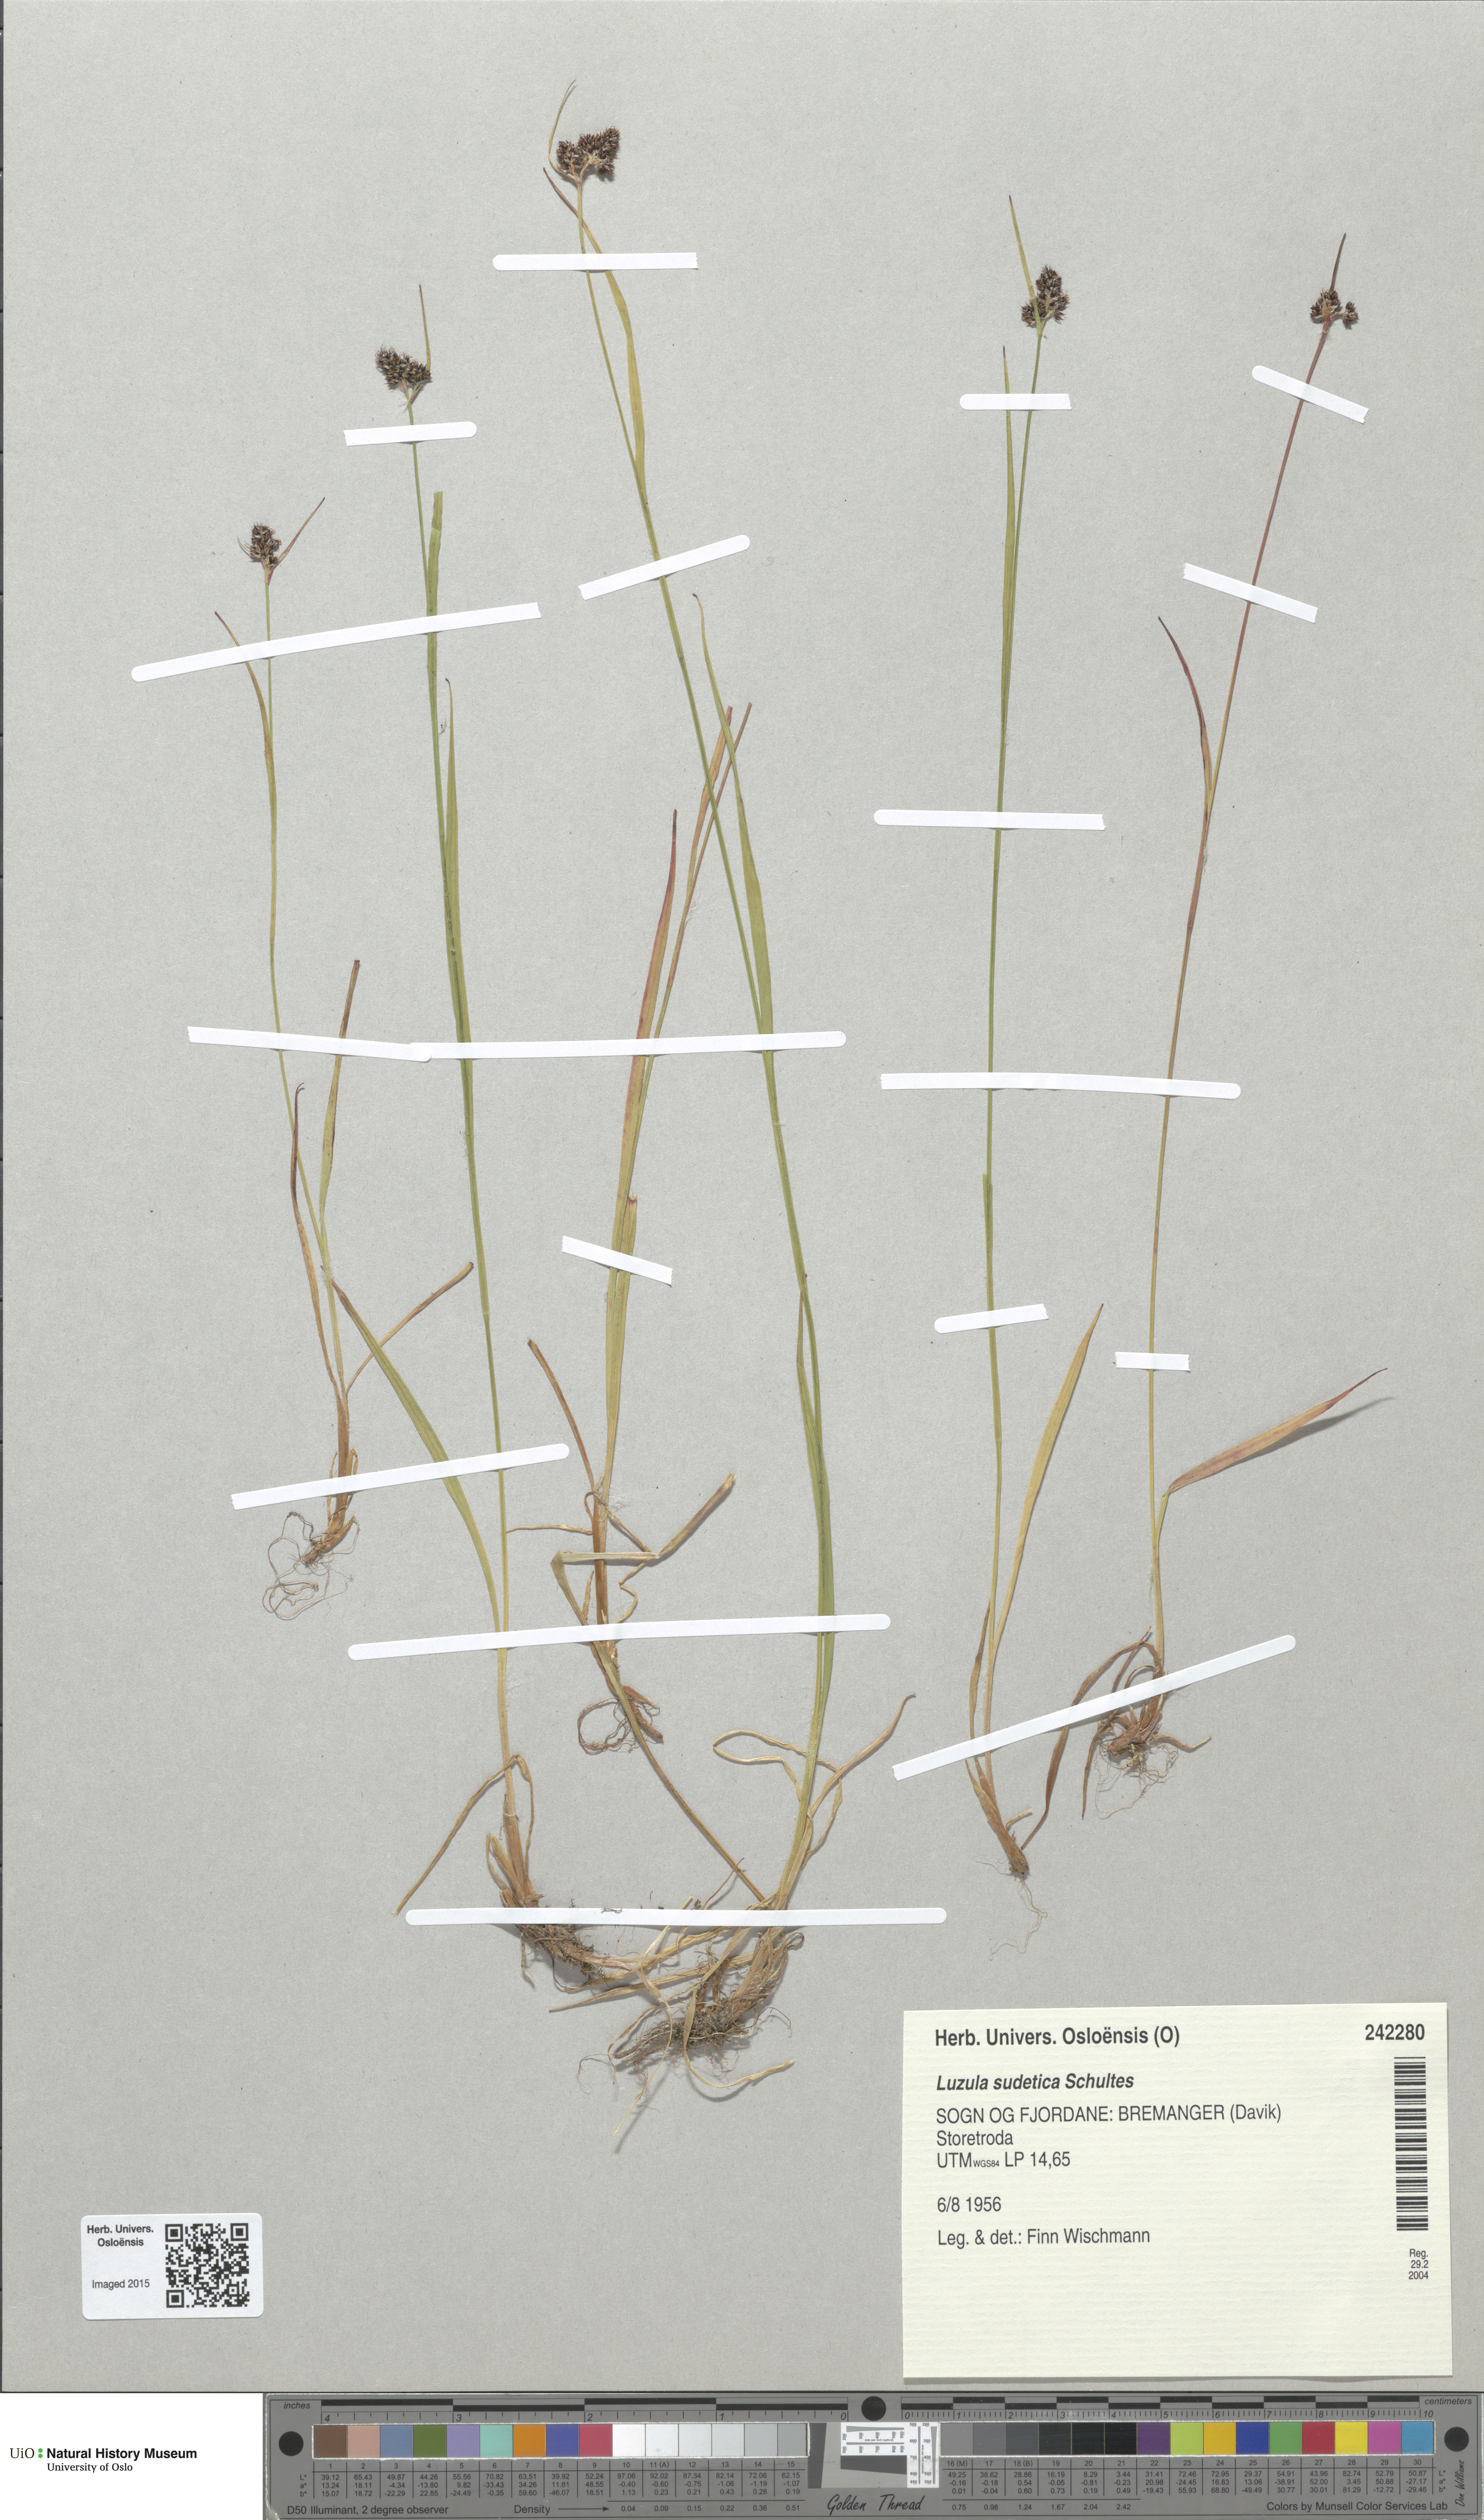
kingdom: Plantae
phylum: Tracheophyta
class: Liliopsida
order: Poales
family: Juncaceae
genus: Luzula
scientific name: Luzula sudetica
